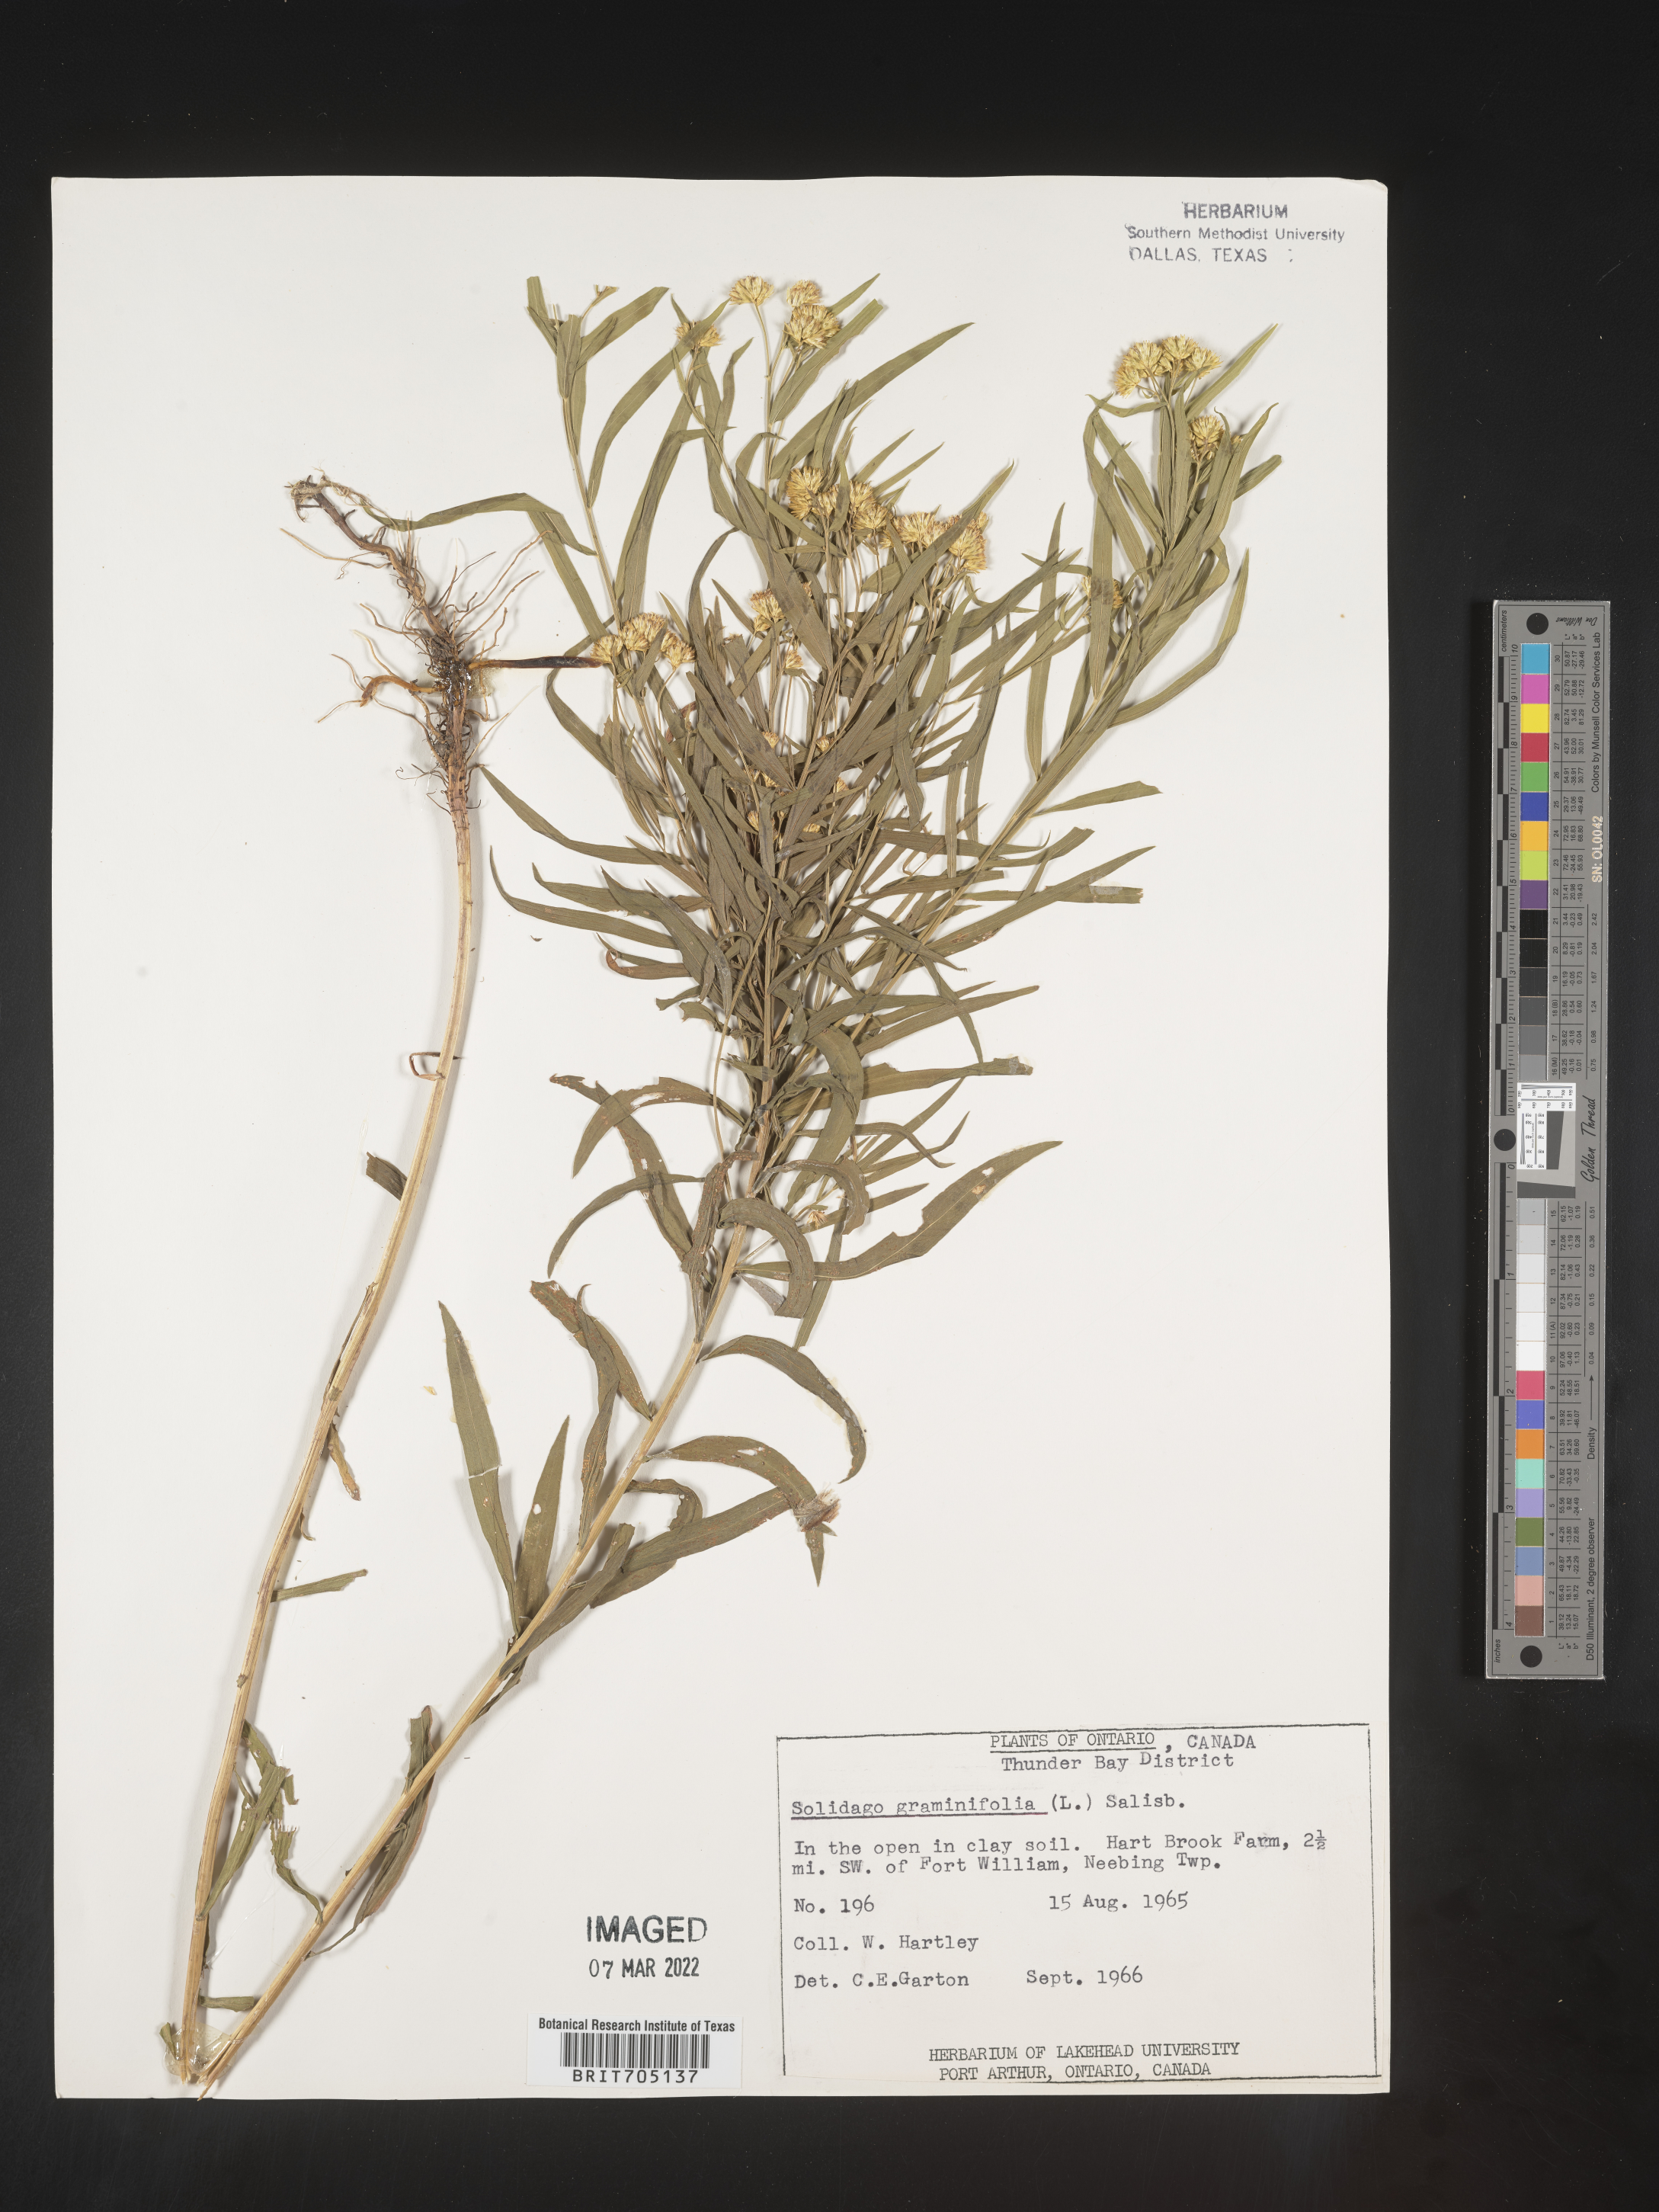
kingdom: Plantae
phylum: Tracheophyta
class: Magnoliopsida
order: Asterales
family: Asteraceae
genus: Euthamia
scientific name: Euthamia graminifolia
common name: Common goldentop
